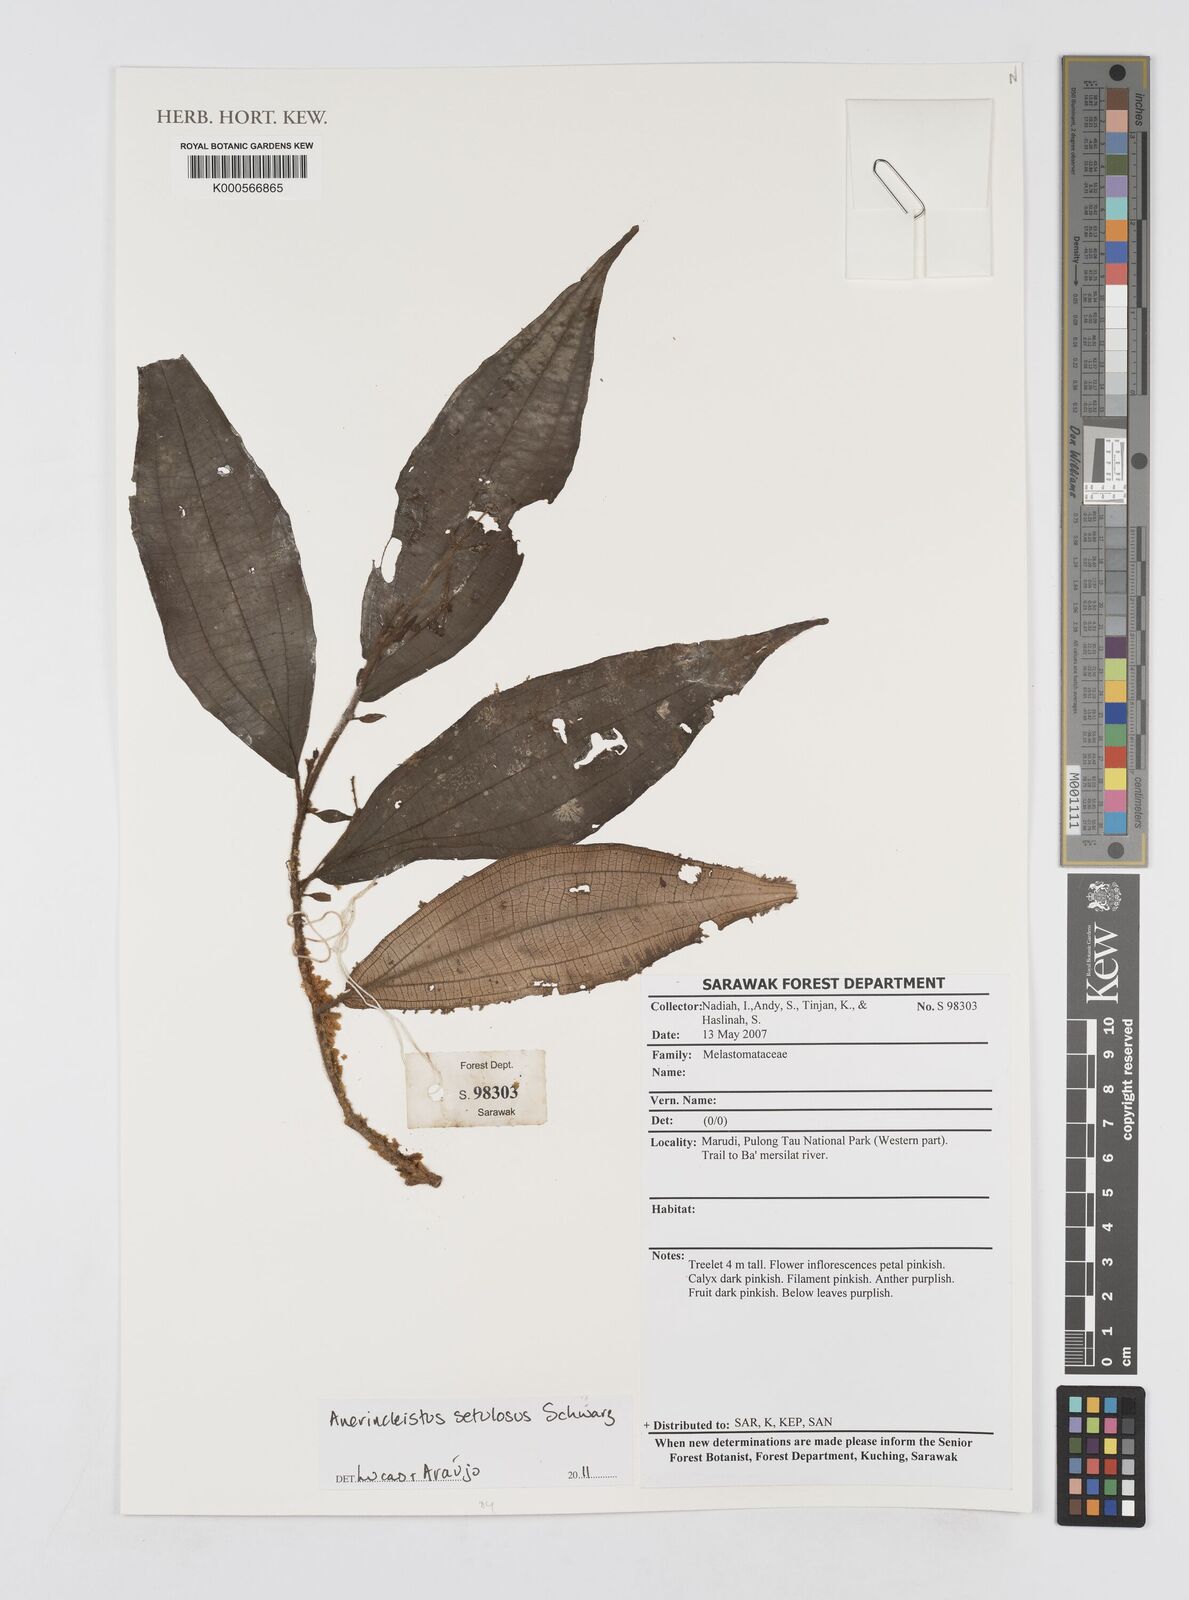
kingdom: Plantae
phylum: Tracheophyta
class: Magnoliopsida
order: Myrtales
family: Melastomataceae
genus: Anerincleistus
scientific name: Anerincleistus
